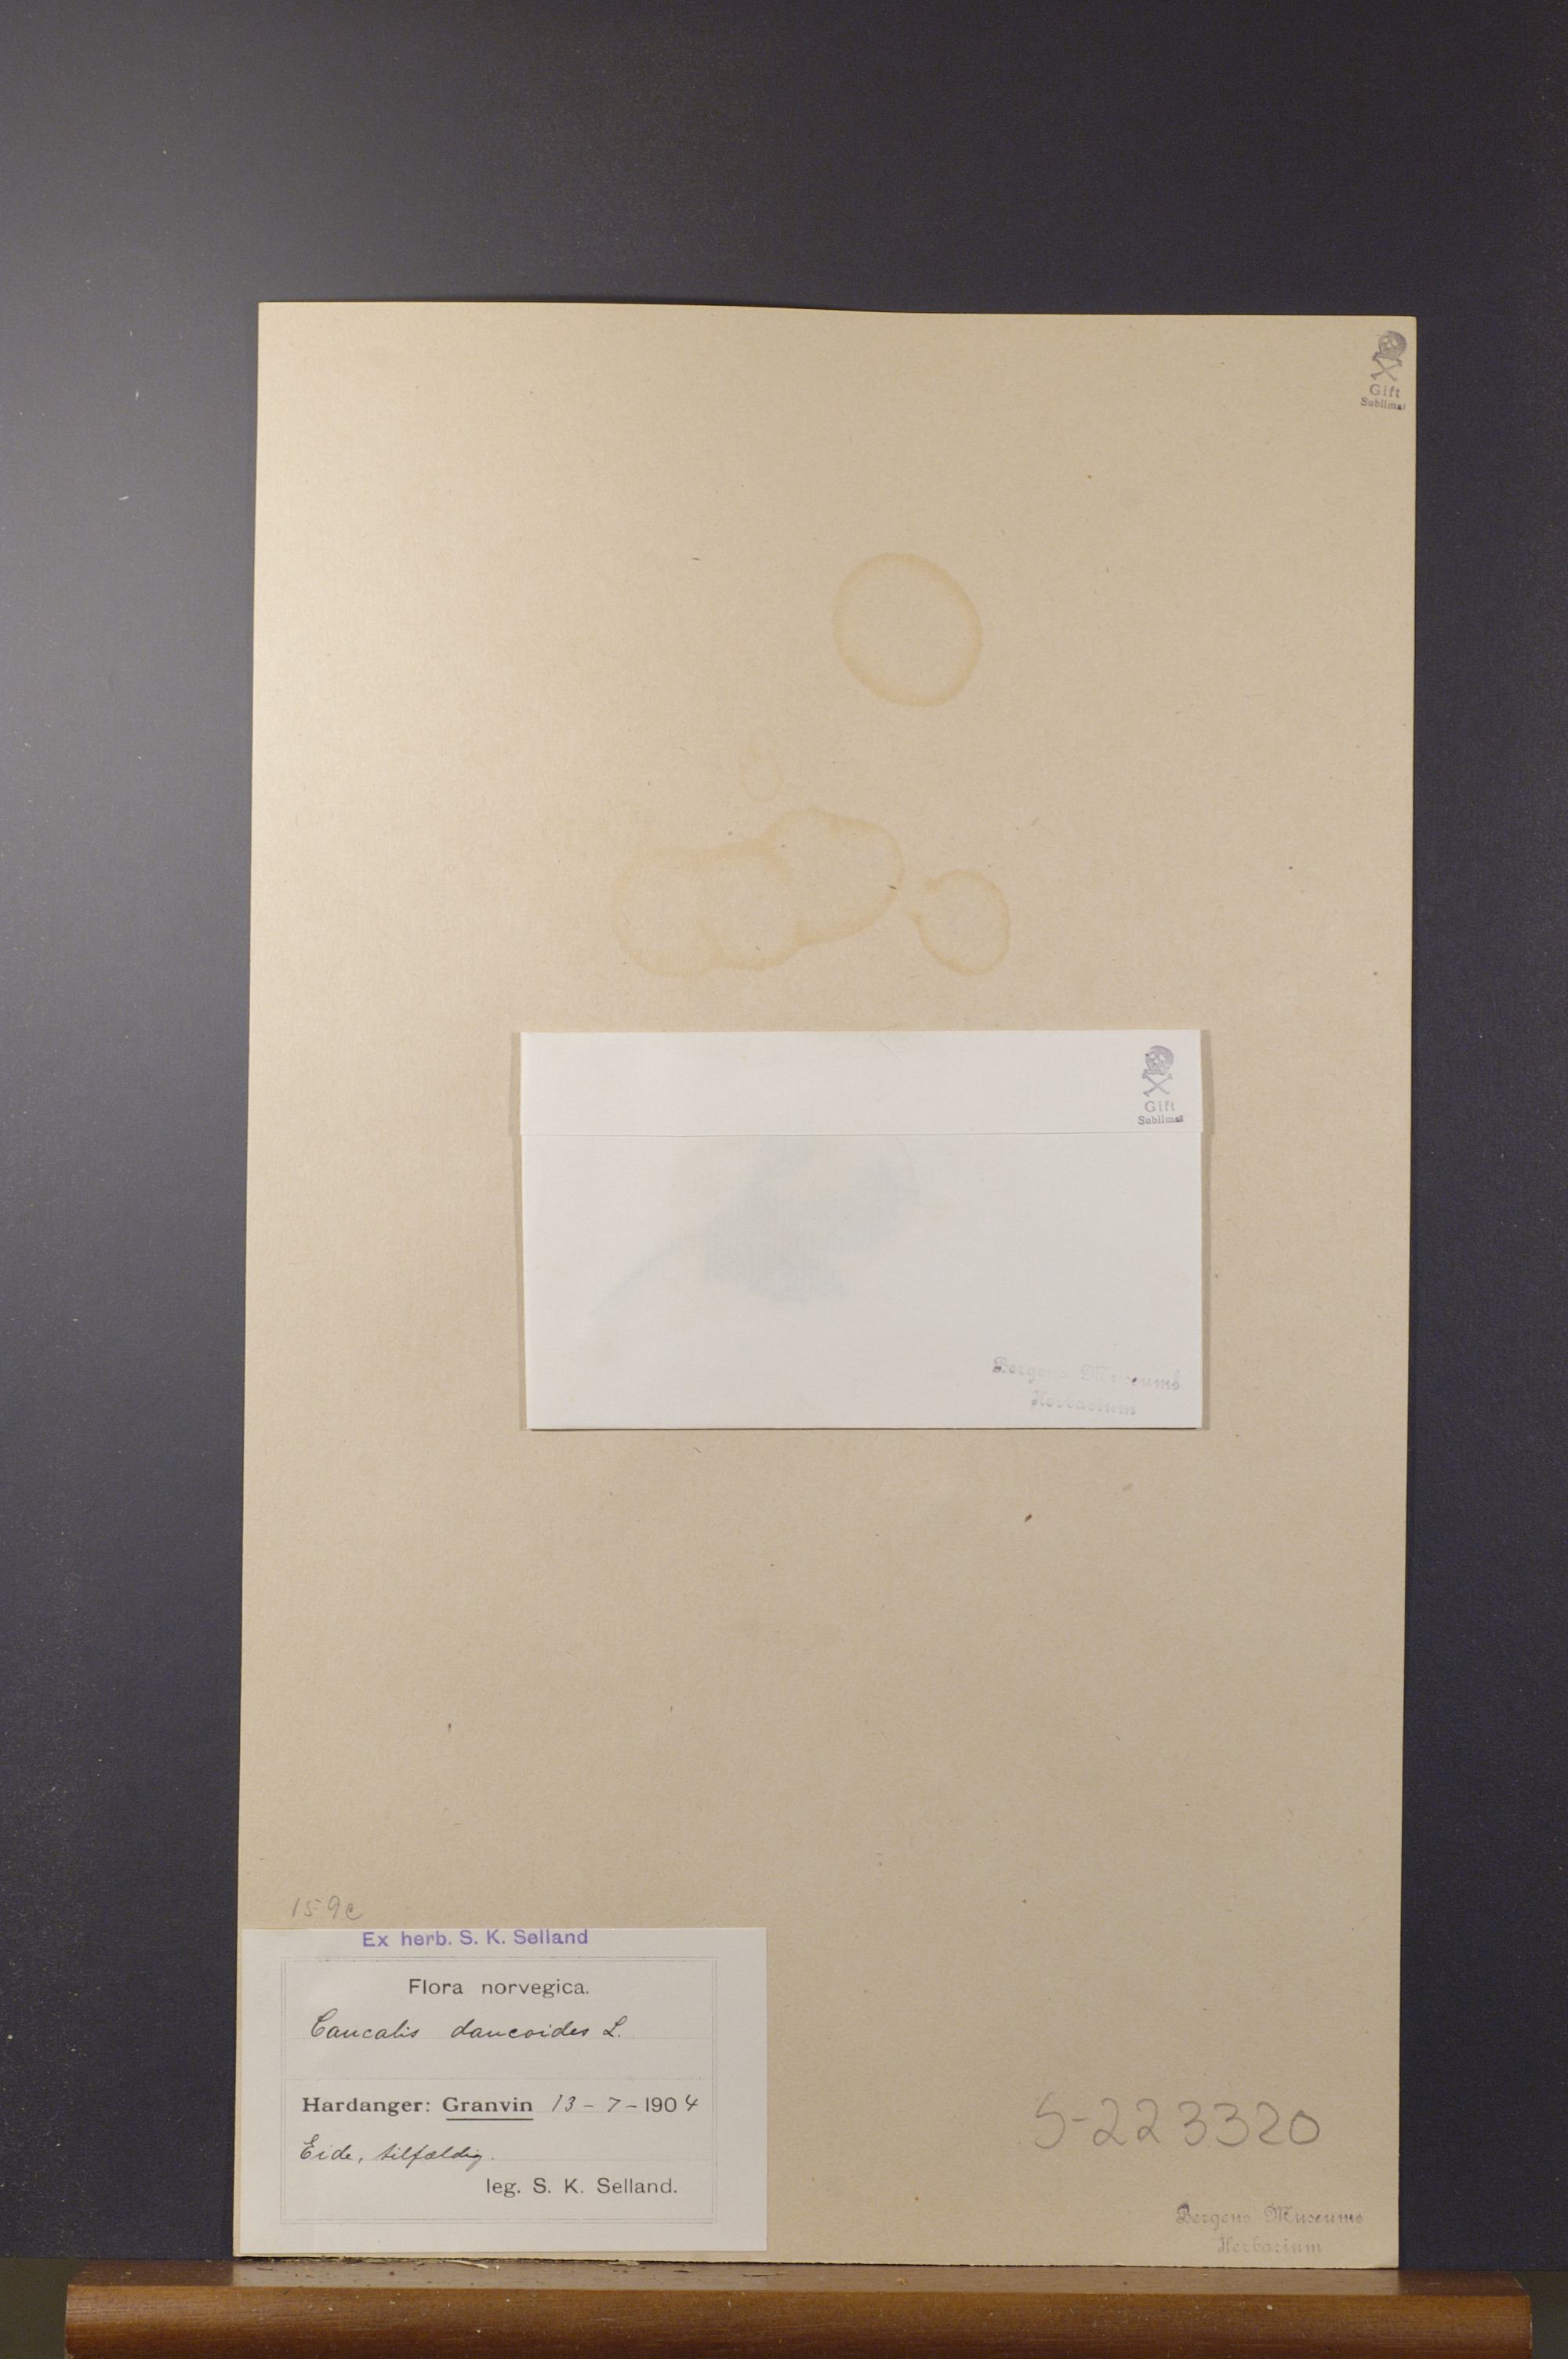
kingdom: Plantae
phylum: Tracheophyta
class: Magnoliopsida
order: Apiales
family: Apiaceae
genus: Caucalis
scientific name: Caucalis platycarpos
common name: Small bur-parsley
